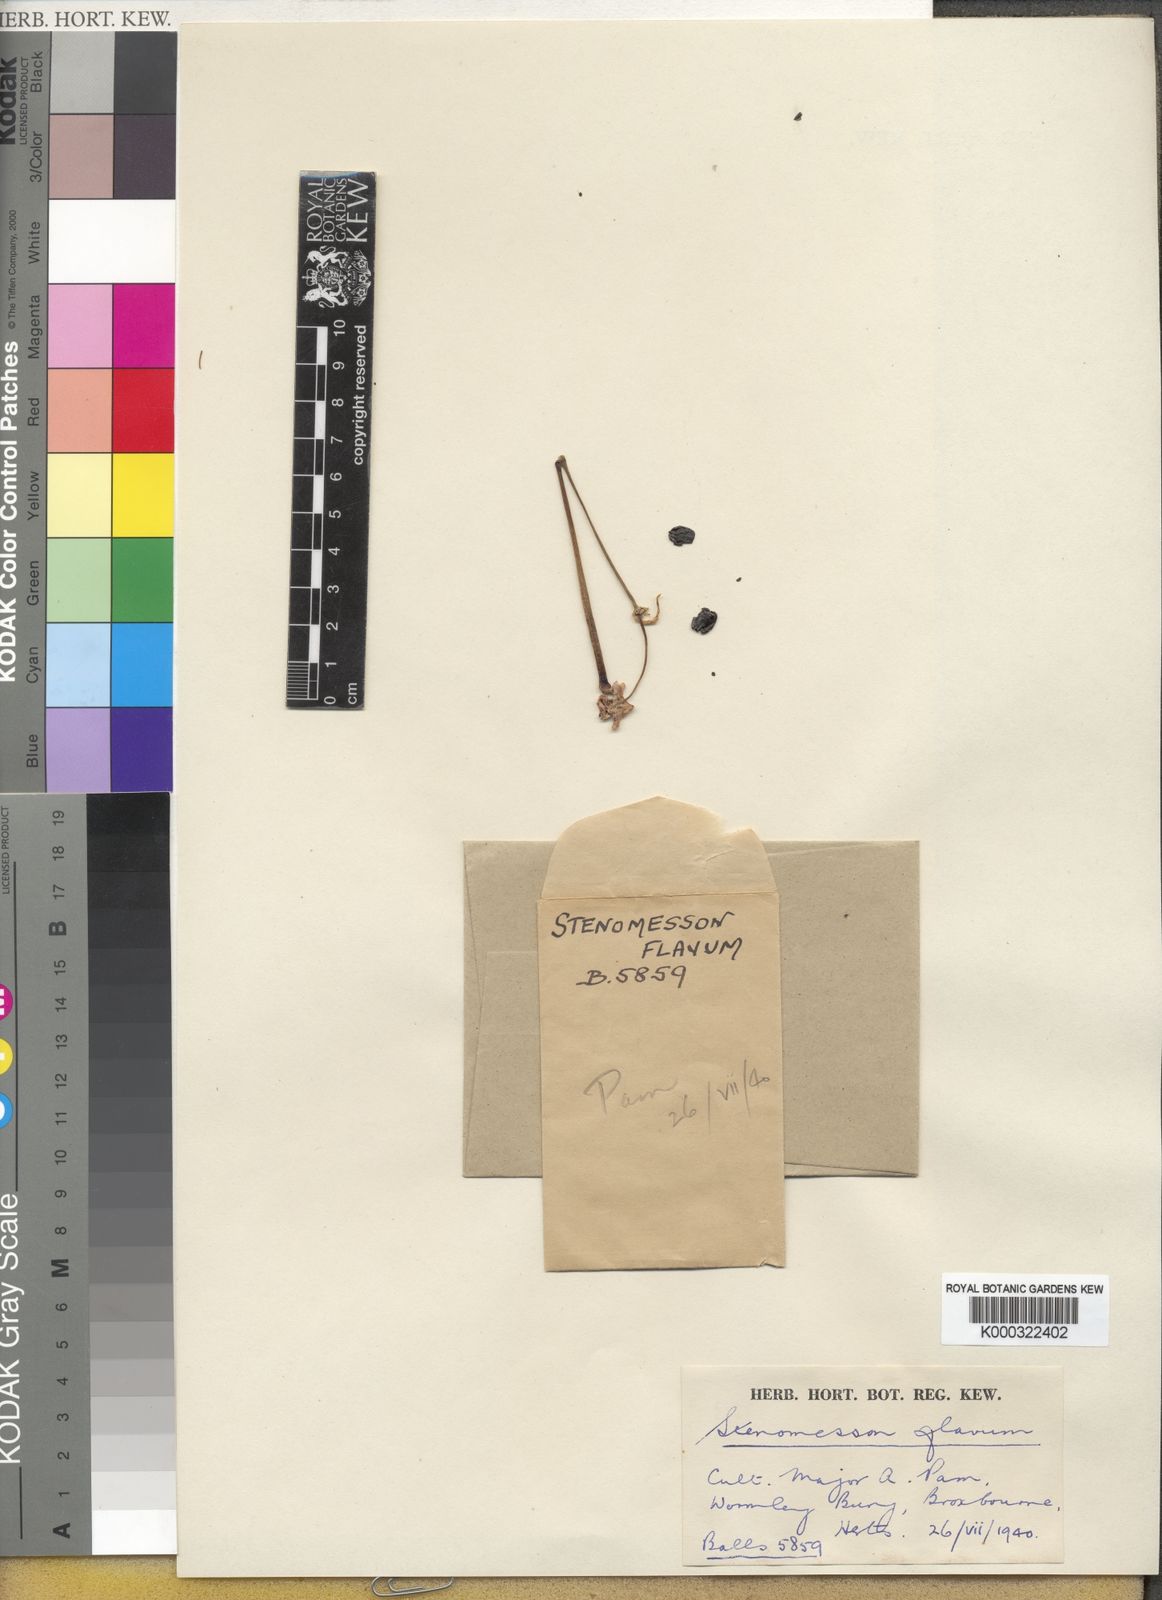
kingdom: Plantae
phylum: Tracheophyta
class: Liliopsida
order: Asparagales
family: Amaryllidaceae
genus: Stenomesson
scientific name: Stenomesson
